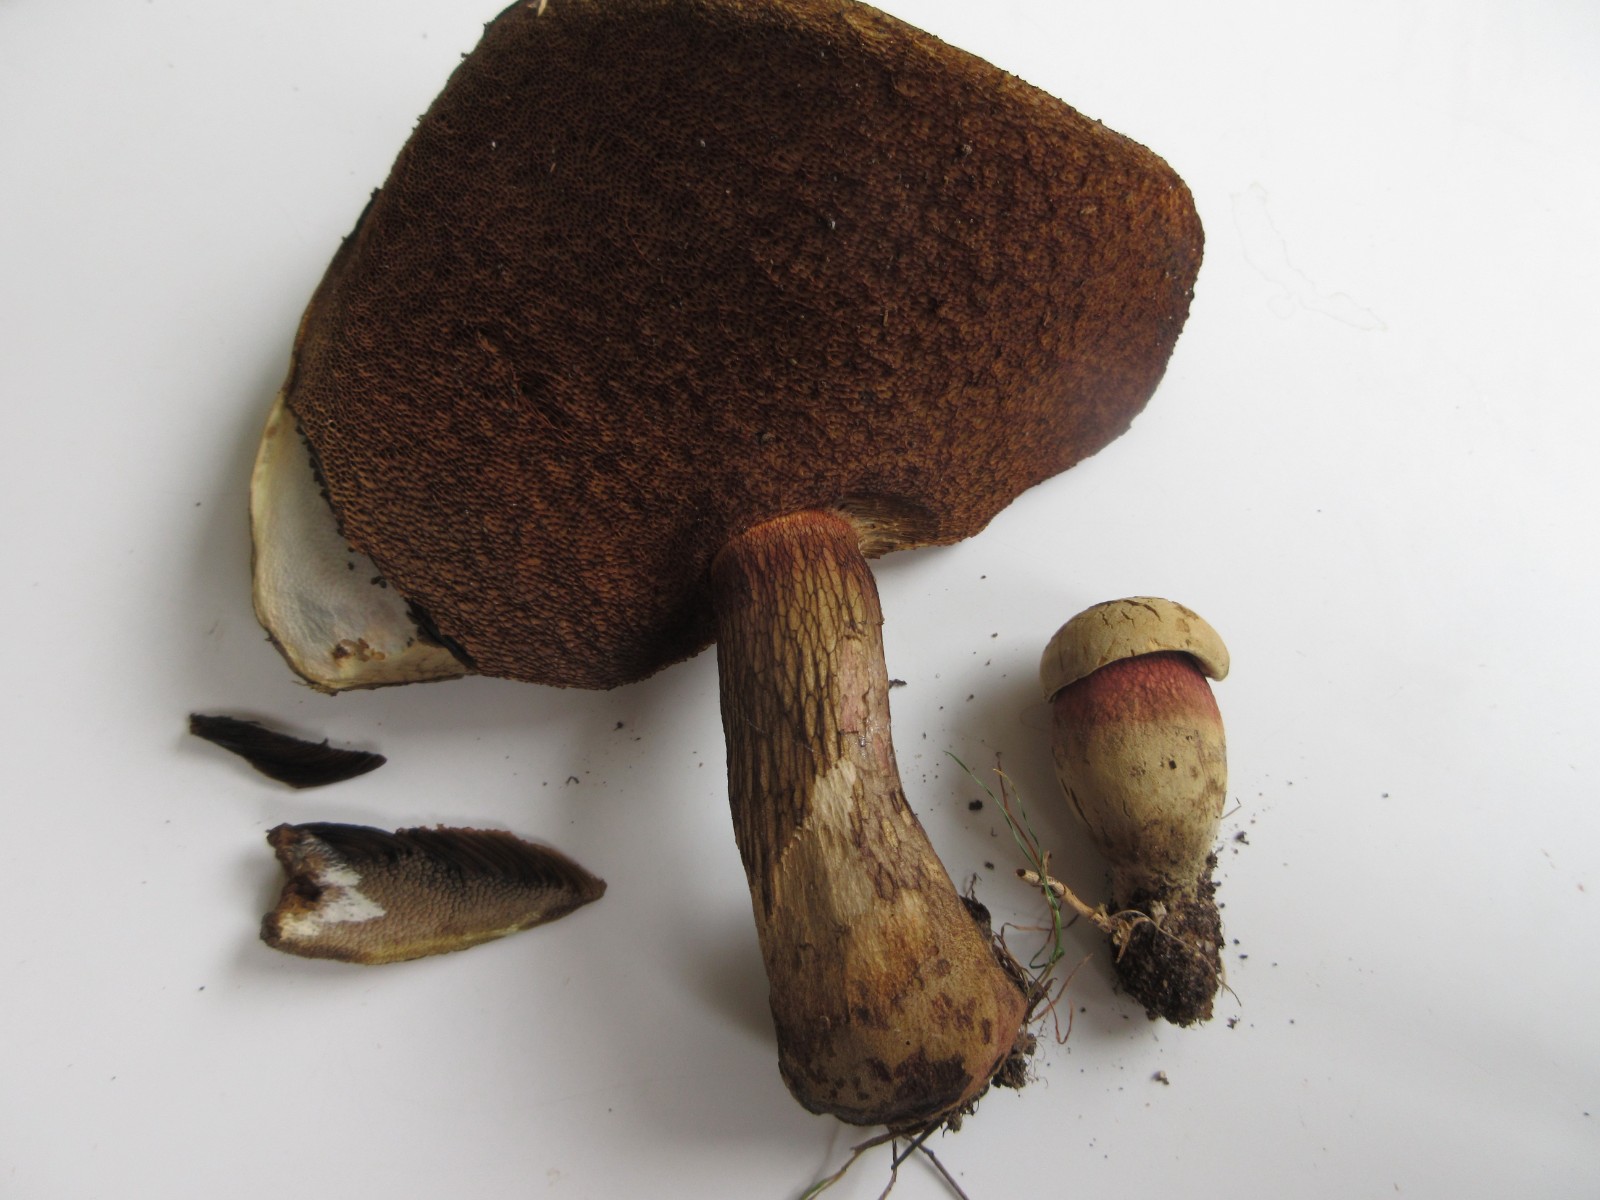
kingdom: Fungi
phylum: Basidiomycota
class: Agaricomycetes
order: Boletales
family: Boletaceae
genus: Suillellus
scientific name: Suillellus luridus
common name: netstokket indigorørhat
